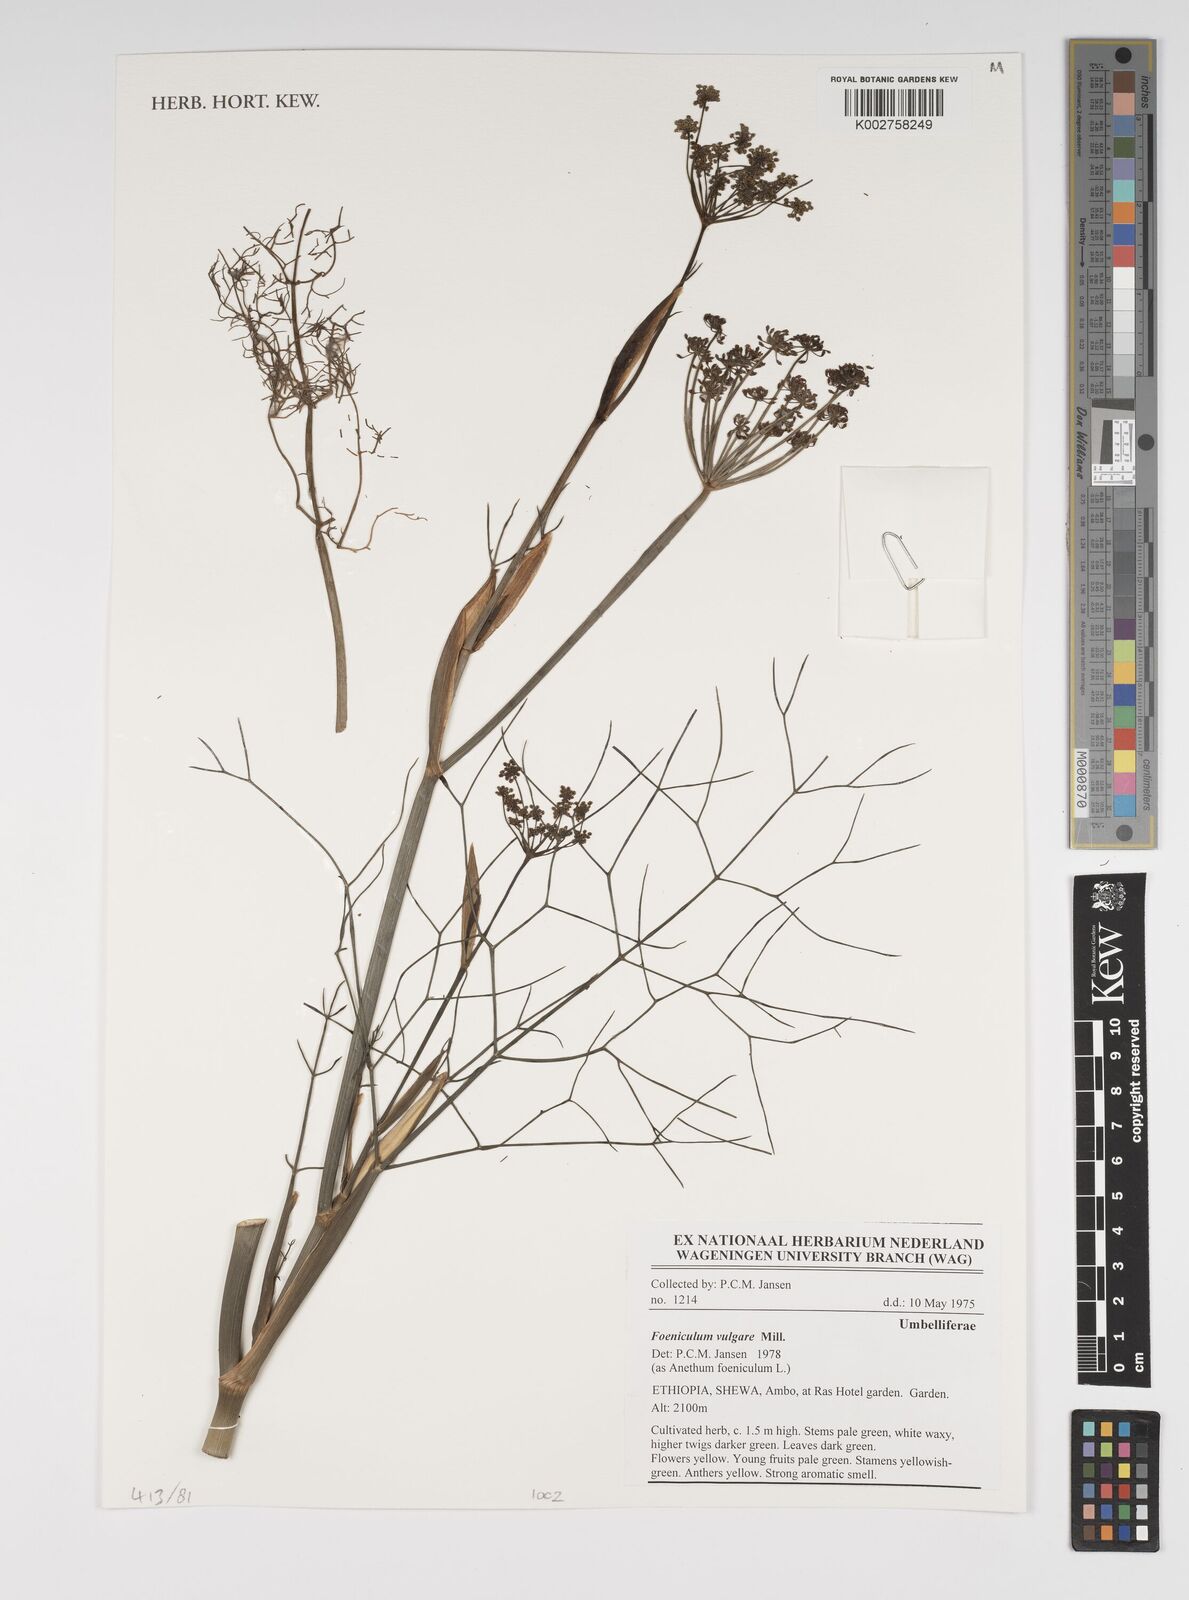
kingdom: Plantae
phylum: Tracheophyta
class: Magnoliopsida
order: Apiales
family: Apiaceae
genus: Foeniculum
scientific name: Foeniculum vulgare
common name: Fennel
